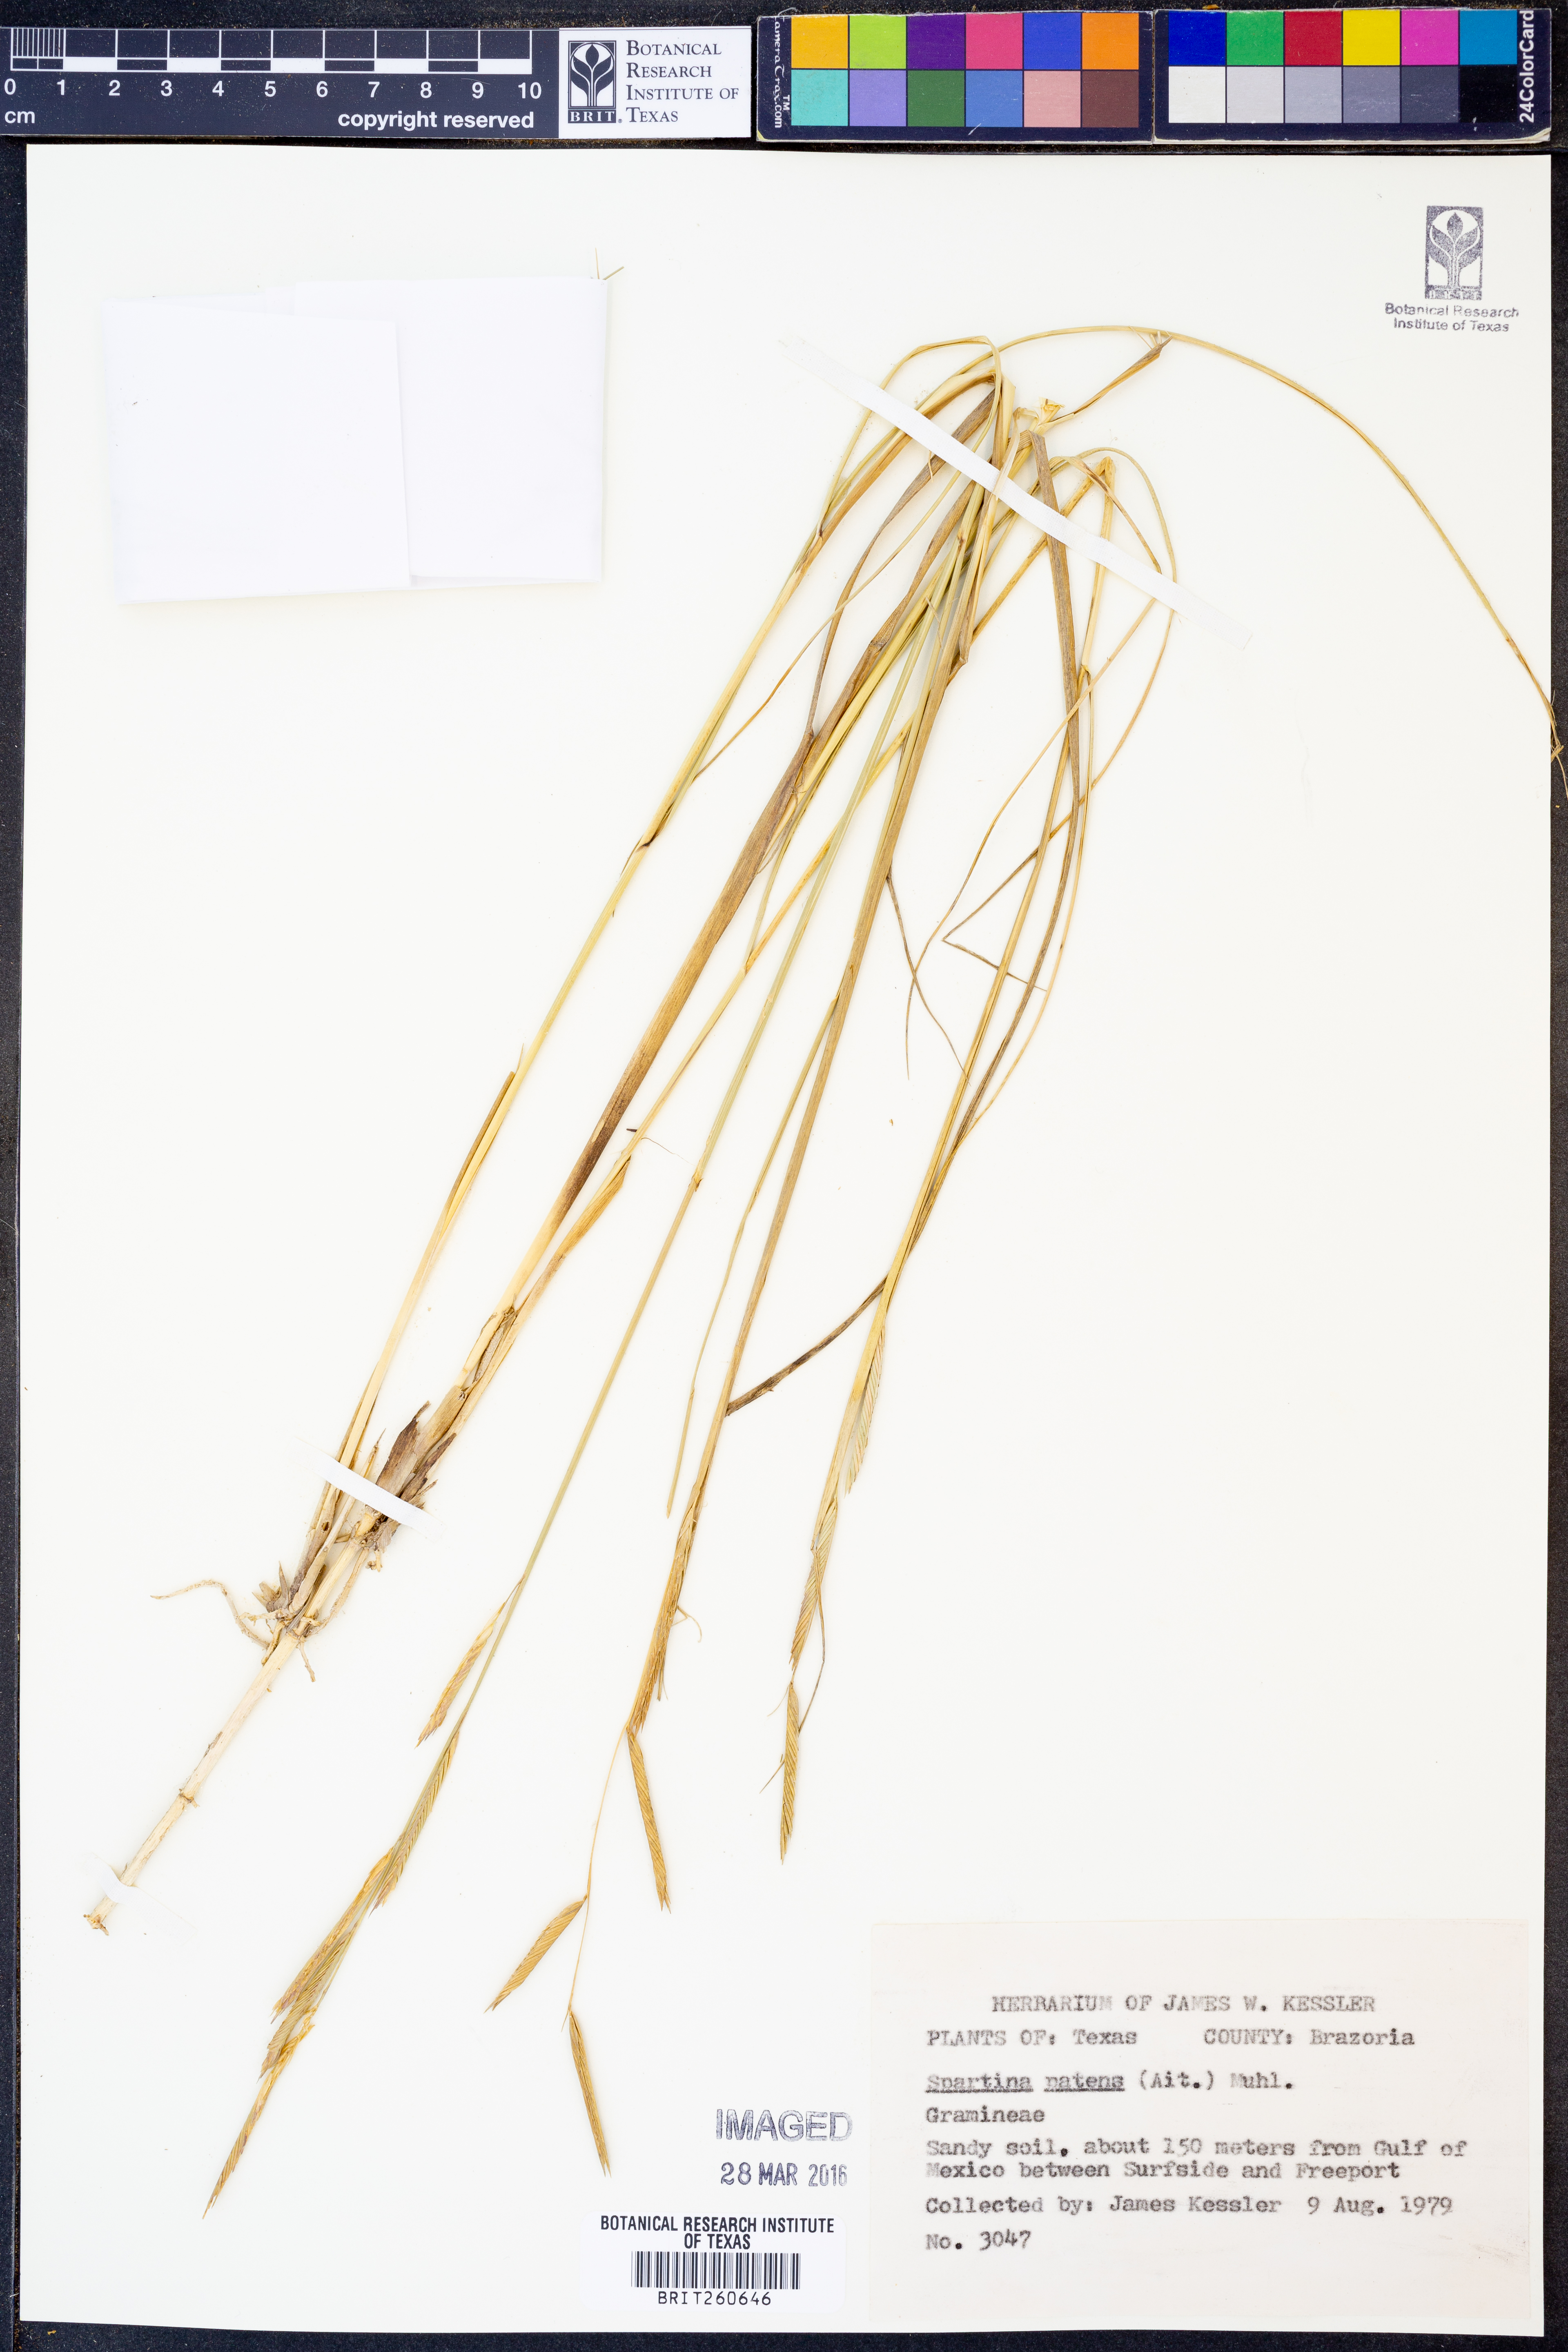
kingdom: Plantae
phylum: Tracheophyta
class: Liliopsida
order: Poales
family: Poaceae
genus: Sporobolus
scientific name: Sporobolus pumilus
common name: Highwater grass
